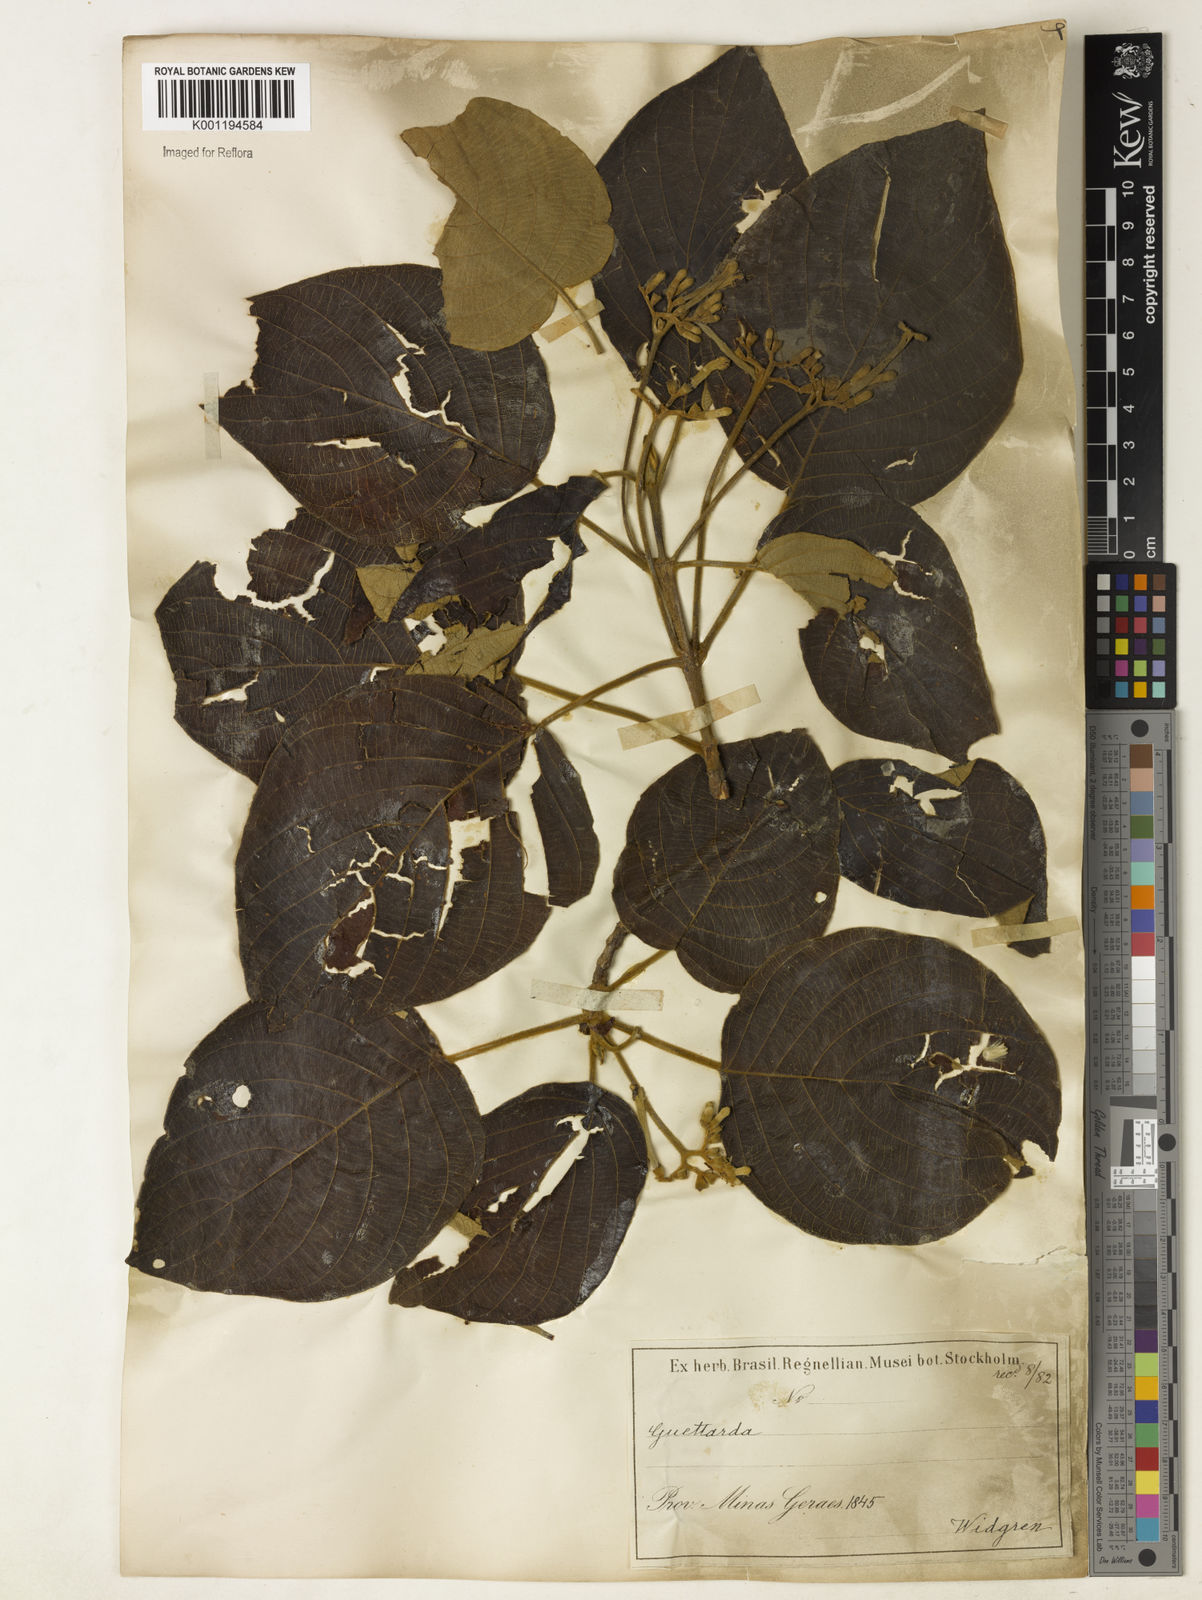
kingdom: Plantae
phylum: Tracheophyta
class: Magnoliopsida
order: Gentianales
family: Rubiaceae
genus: Guettarda
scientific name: Guettarda viburnoides
